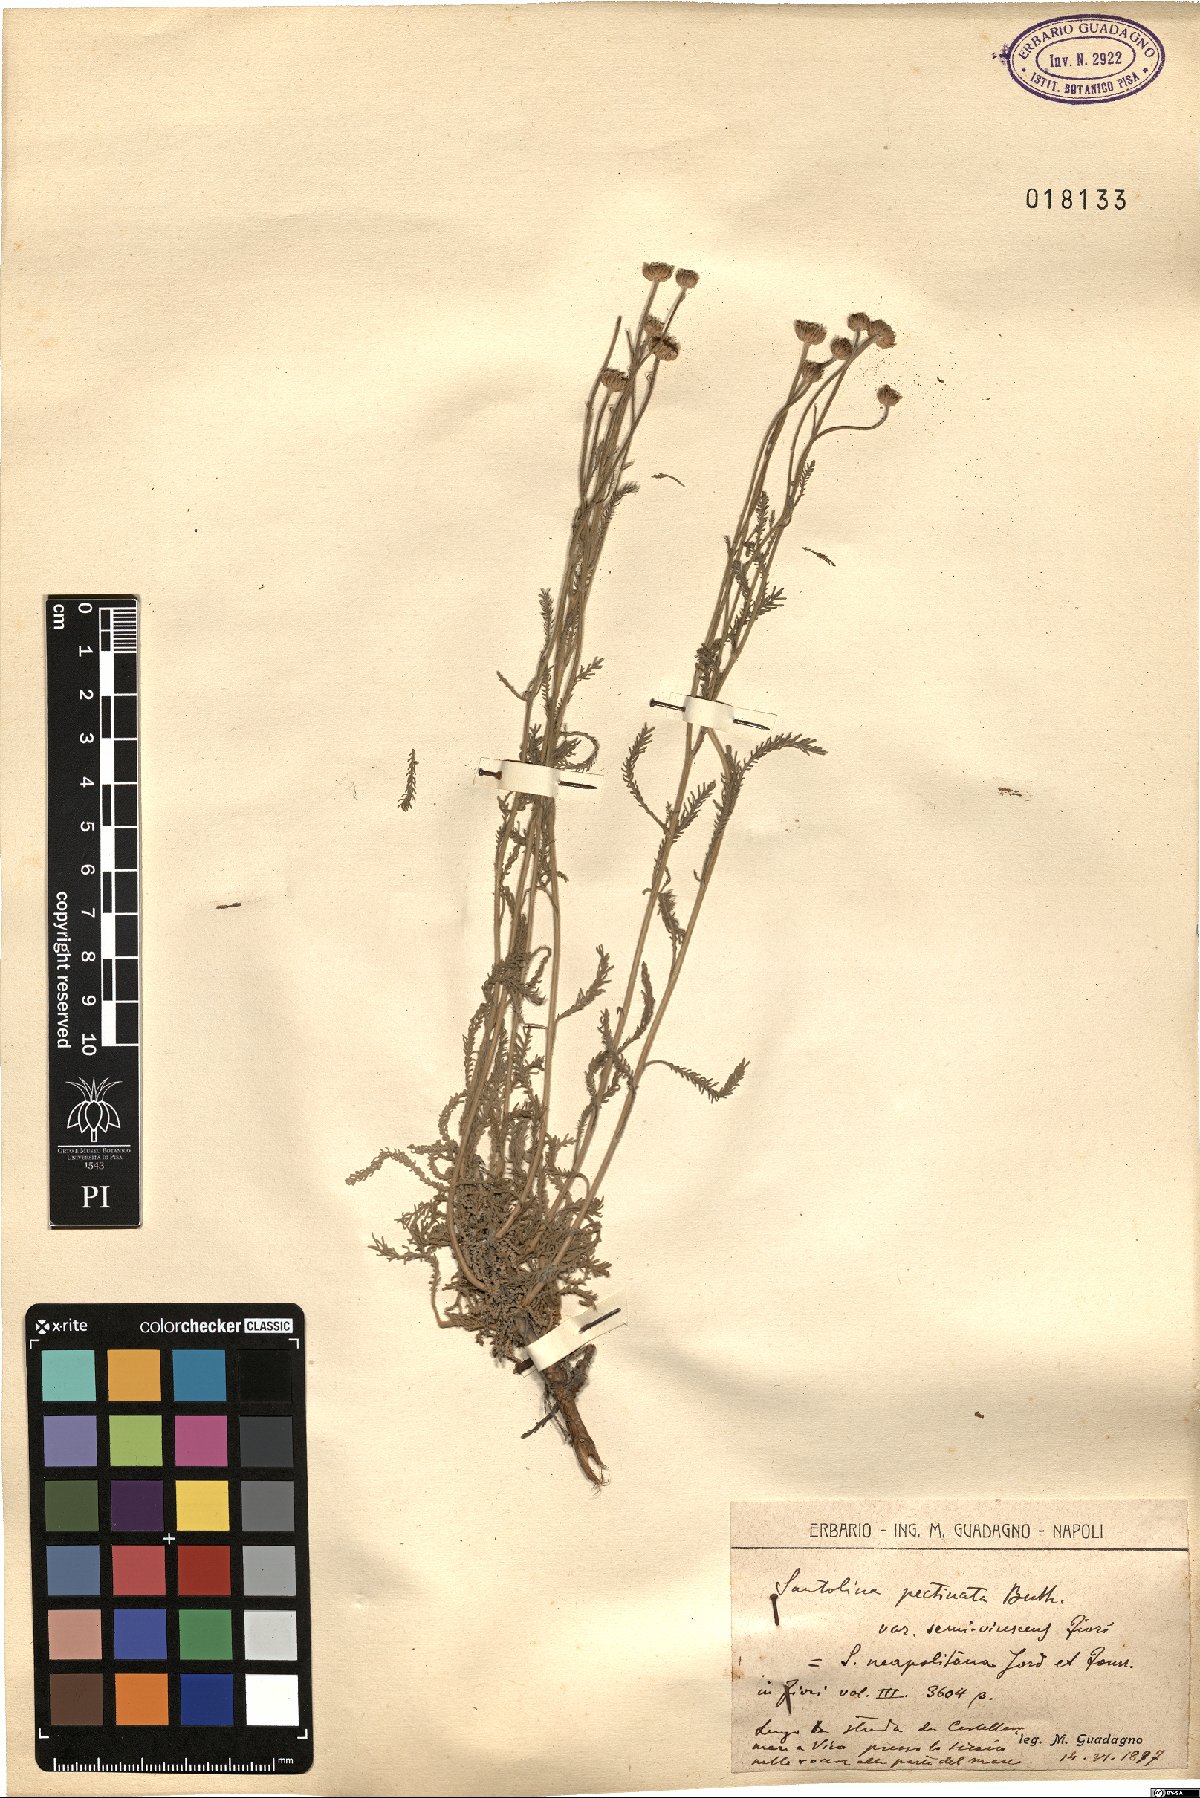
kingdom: Plantae
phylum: Tracheophyta
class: Magnoliopsida
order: Asterales
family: Asteraceae
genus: Santolina
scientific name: Santolina neapolitana
